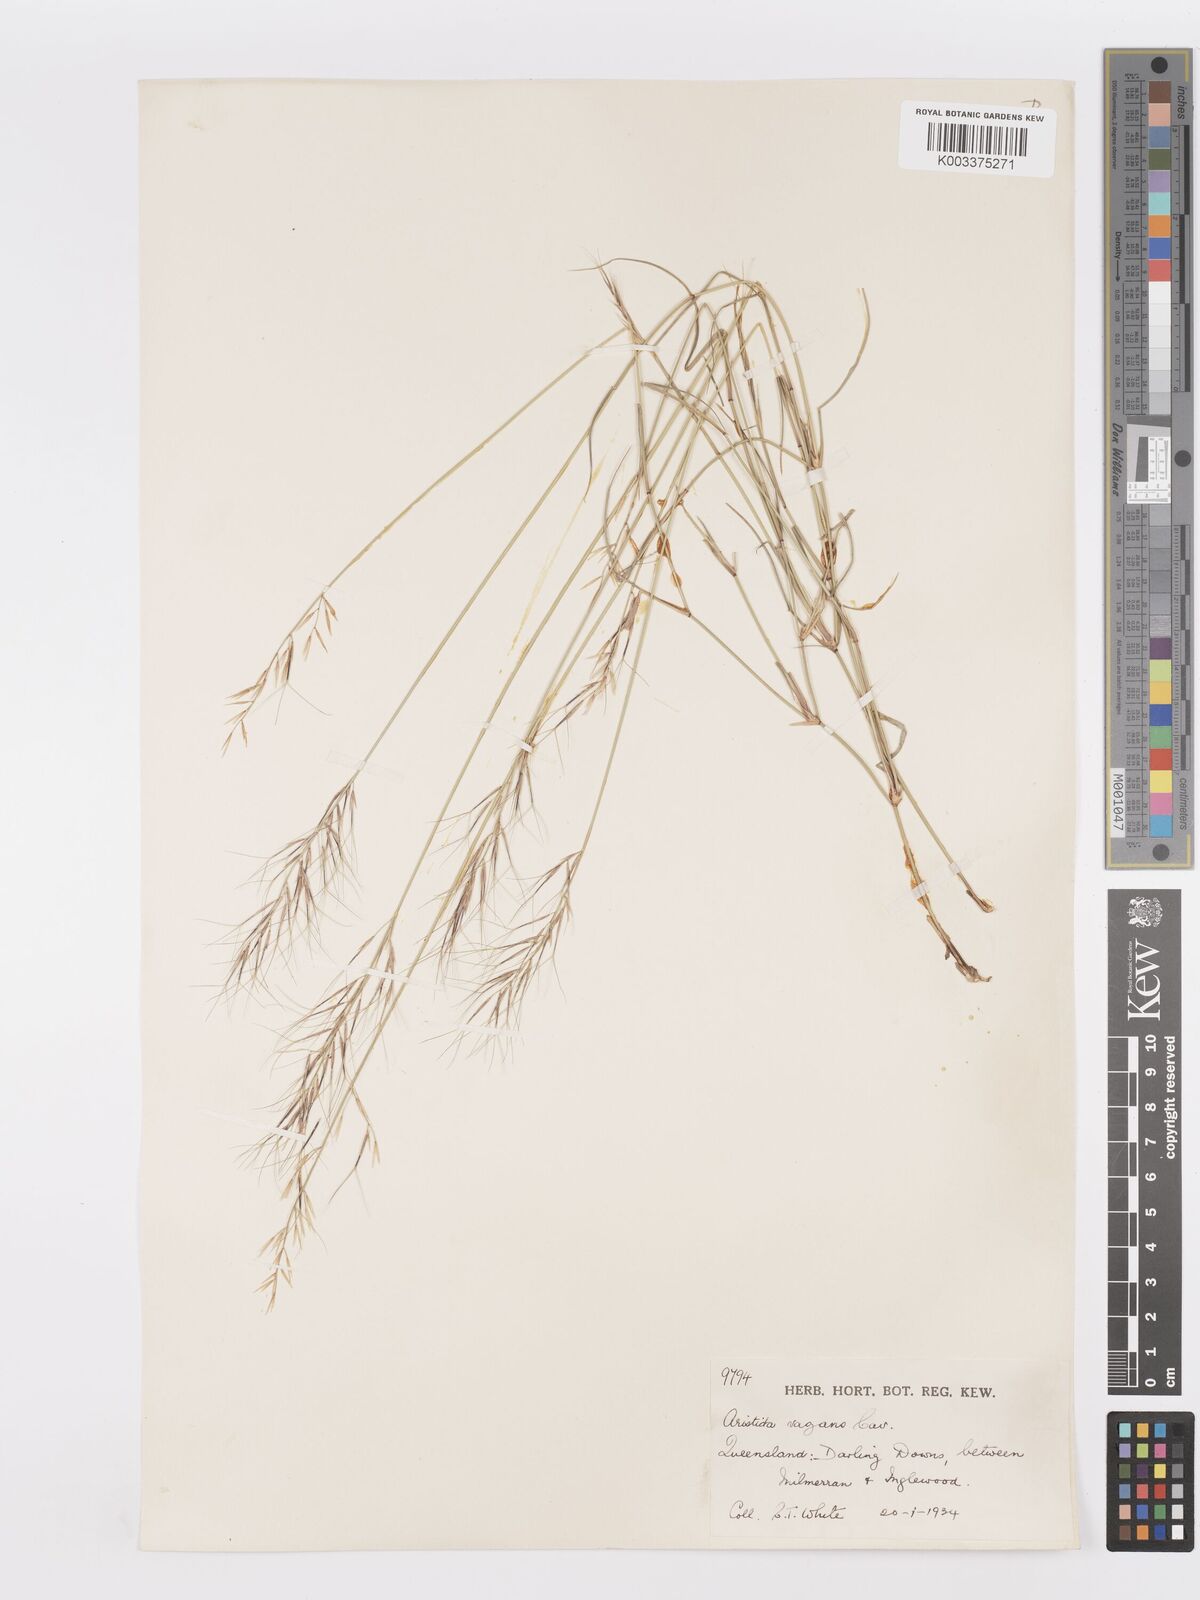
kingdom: Plantae
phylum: Tracheophyta
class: Liliopsida
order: Poales
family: Poaceae
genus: Aristida
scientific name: Aristida vagans
